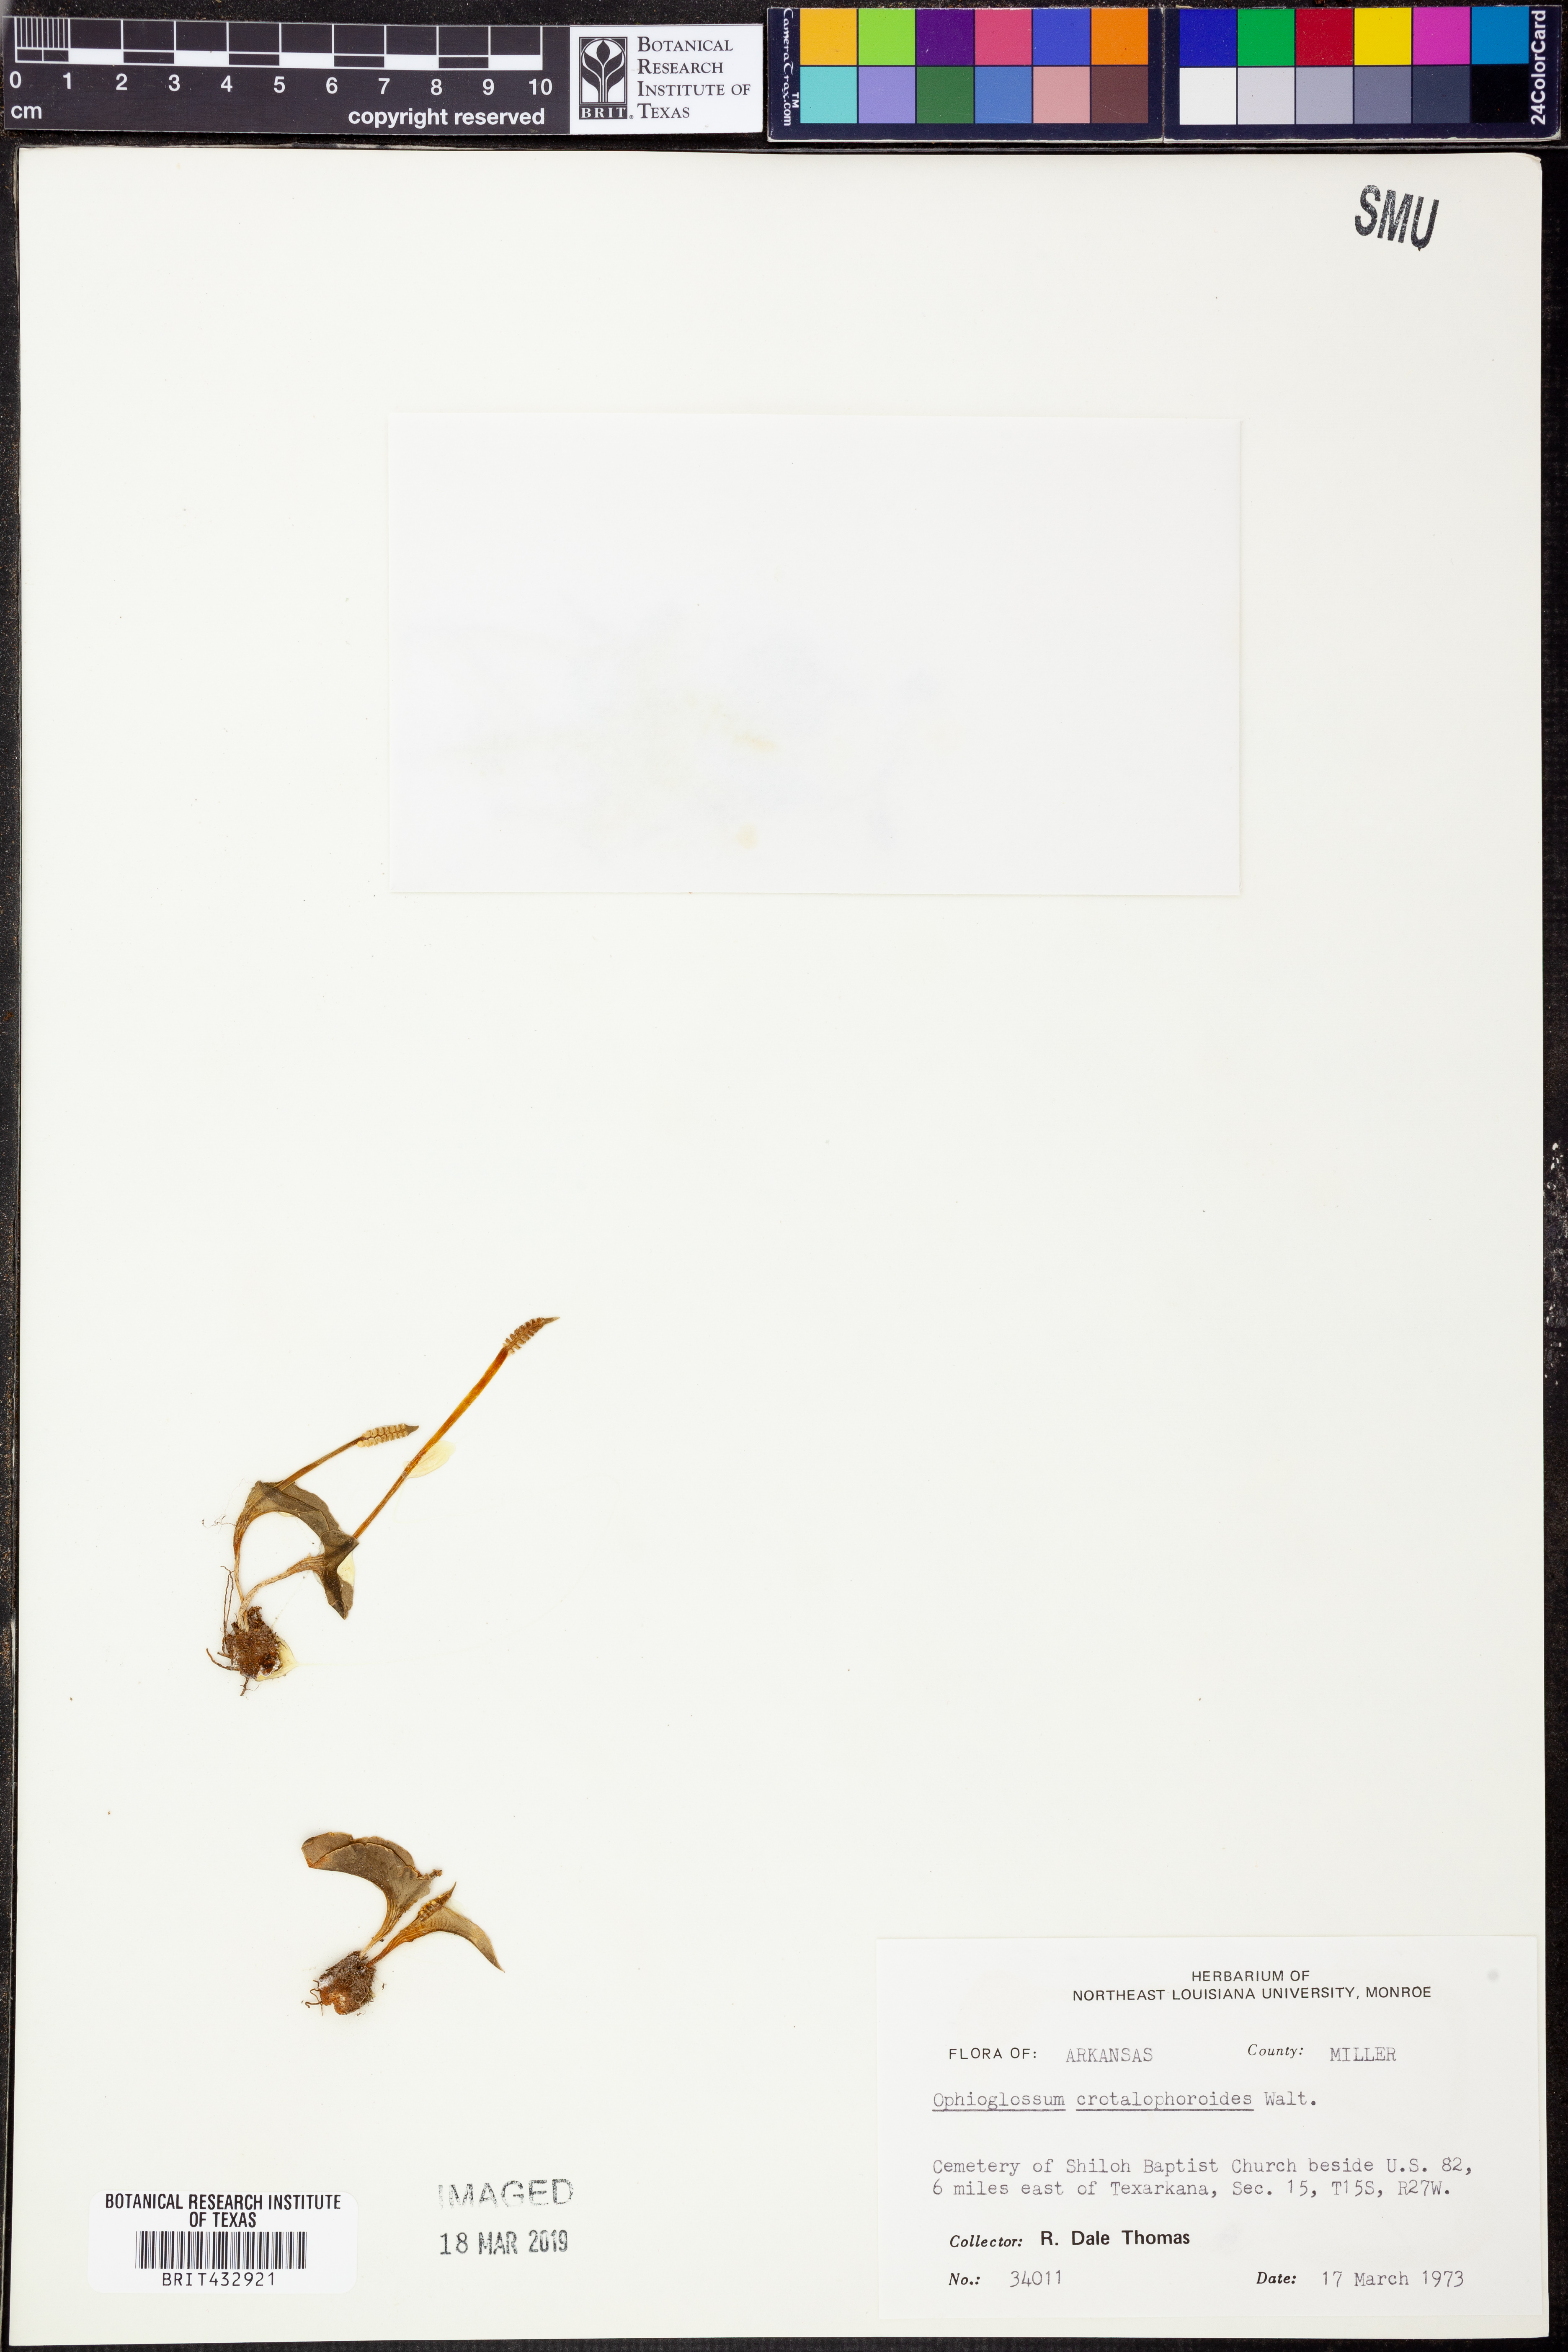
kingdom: Plantae
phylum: Tracheophyta
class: Polypodiopsida
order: Ophioglossales
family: Ophioglossaceae
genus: Ophioglossum
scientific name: Ophioglossum crotalophoroides
